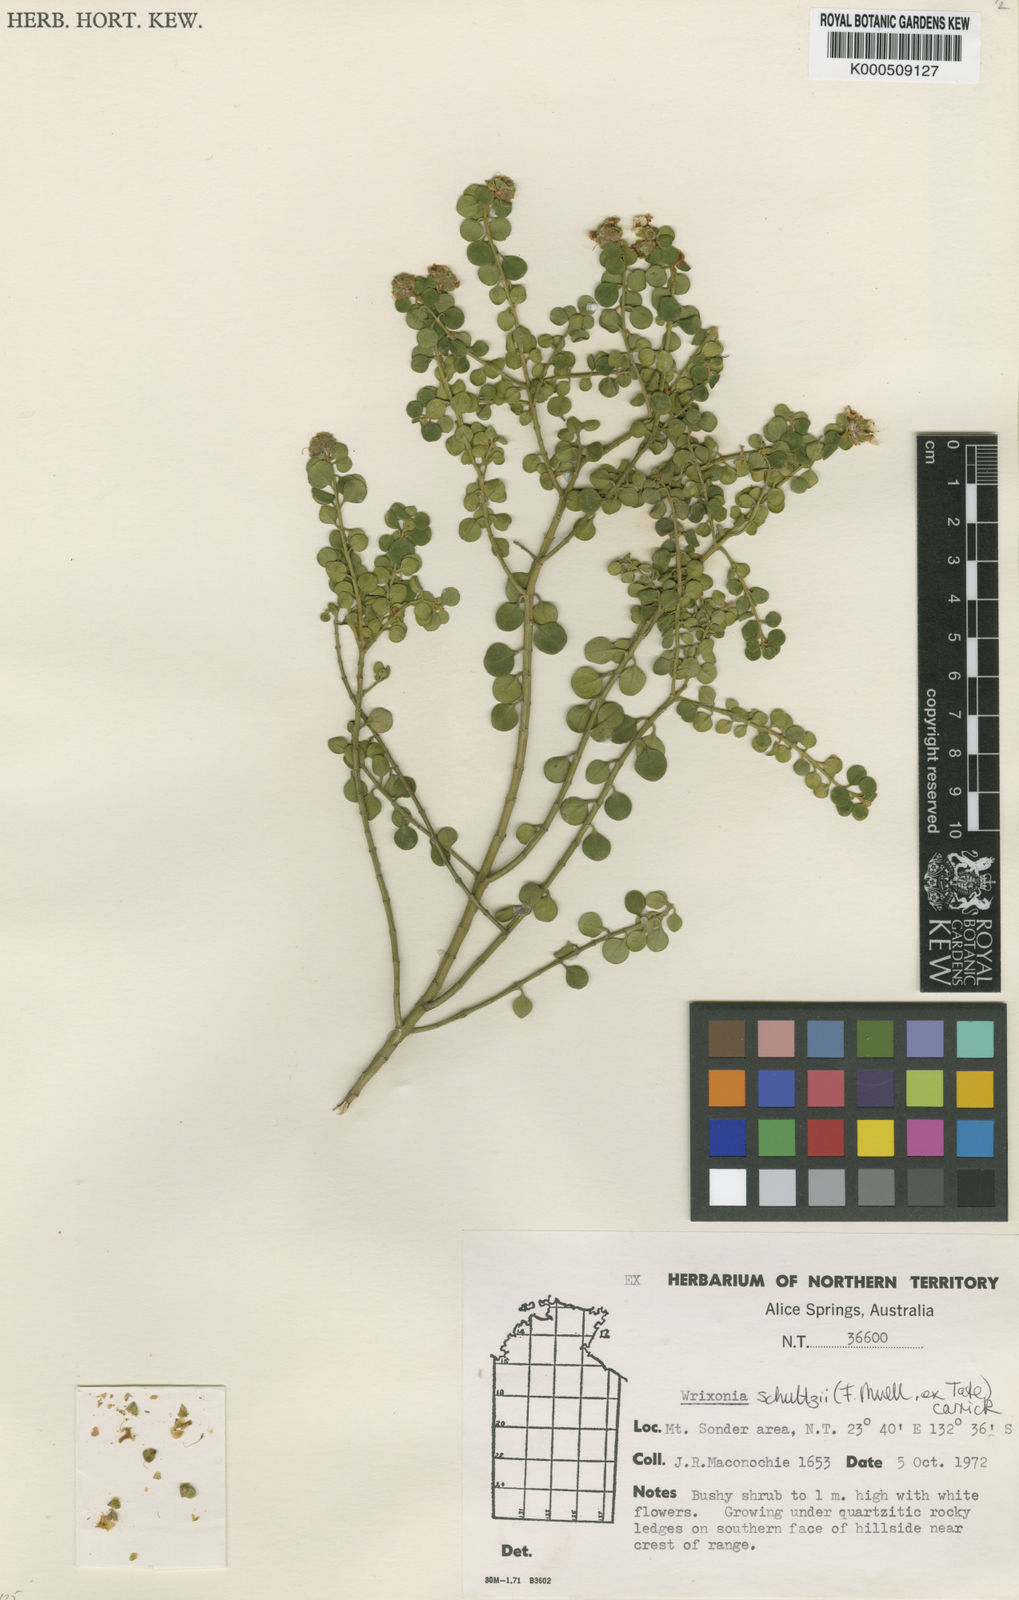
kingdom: Plantae
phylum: Tracheophyta
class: Magnoliopsida
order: Lamiales
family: Lamiaceae
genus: Prostanthera
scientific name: Prostanthera schultzii
